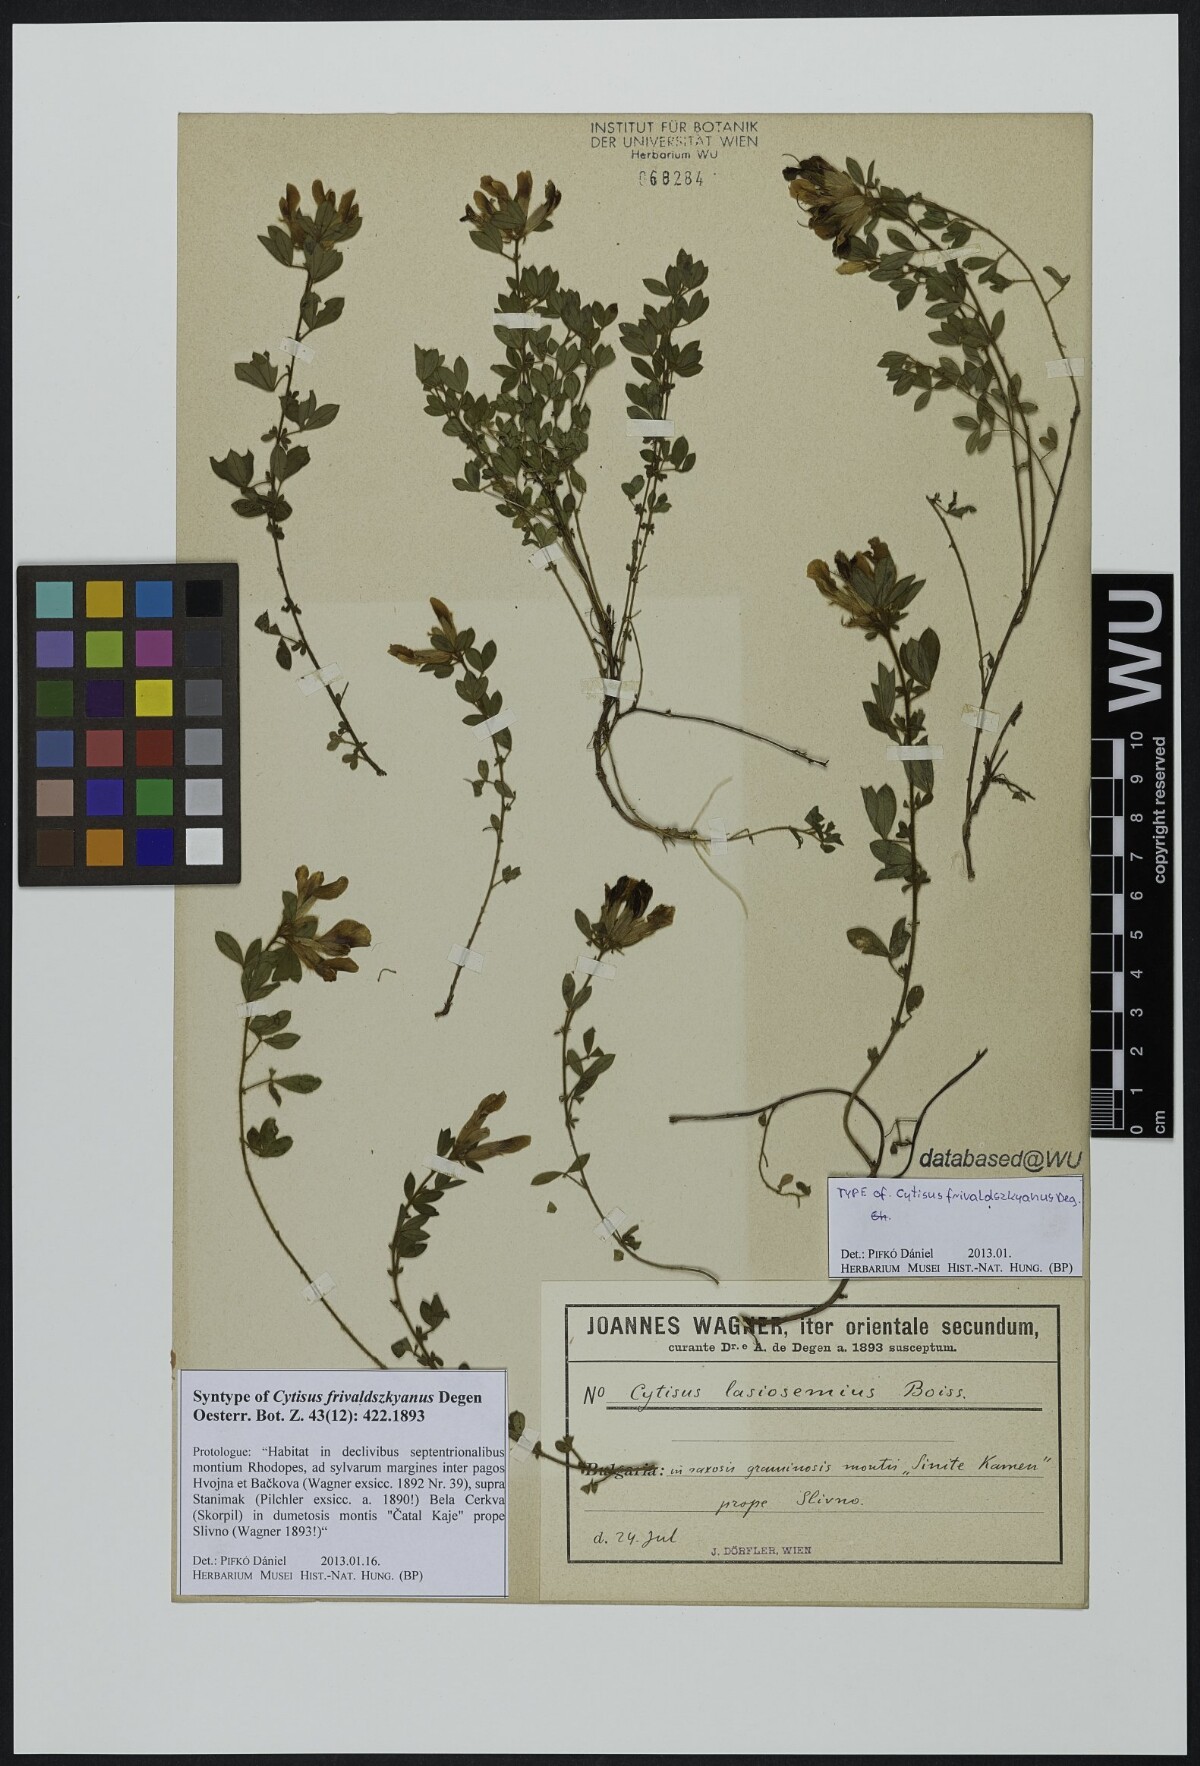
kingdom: Plantae
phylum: Tracheophyta
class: Magnoliopsida
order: Fabales
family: Fabaceae
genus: Chamaecytisus
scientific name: Chamaecytisus frivaldszkyanus
